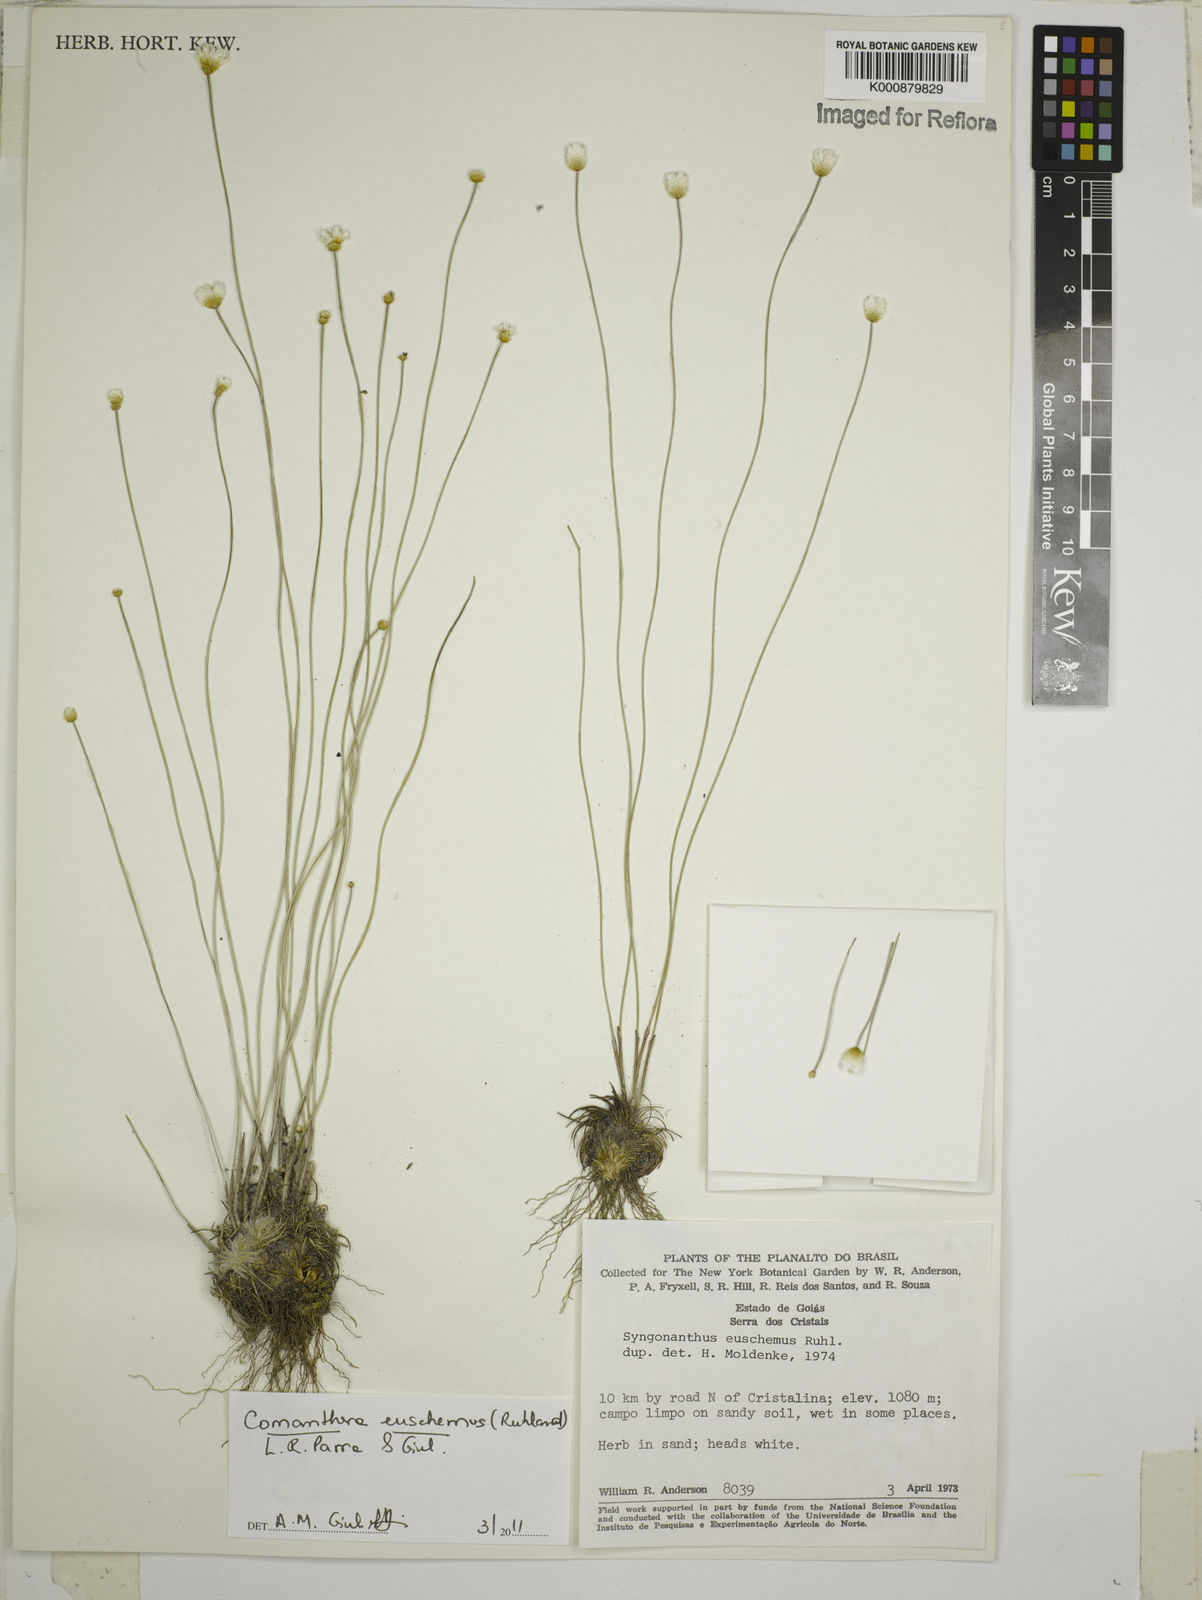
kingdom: Plantae
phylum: Tracheophyta
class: Liliopsida
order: Poales
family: Eriocaulaceae
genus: Comanthera
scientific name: Comanthera euschemus
